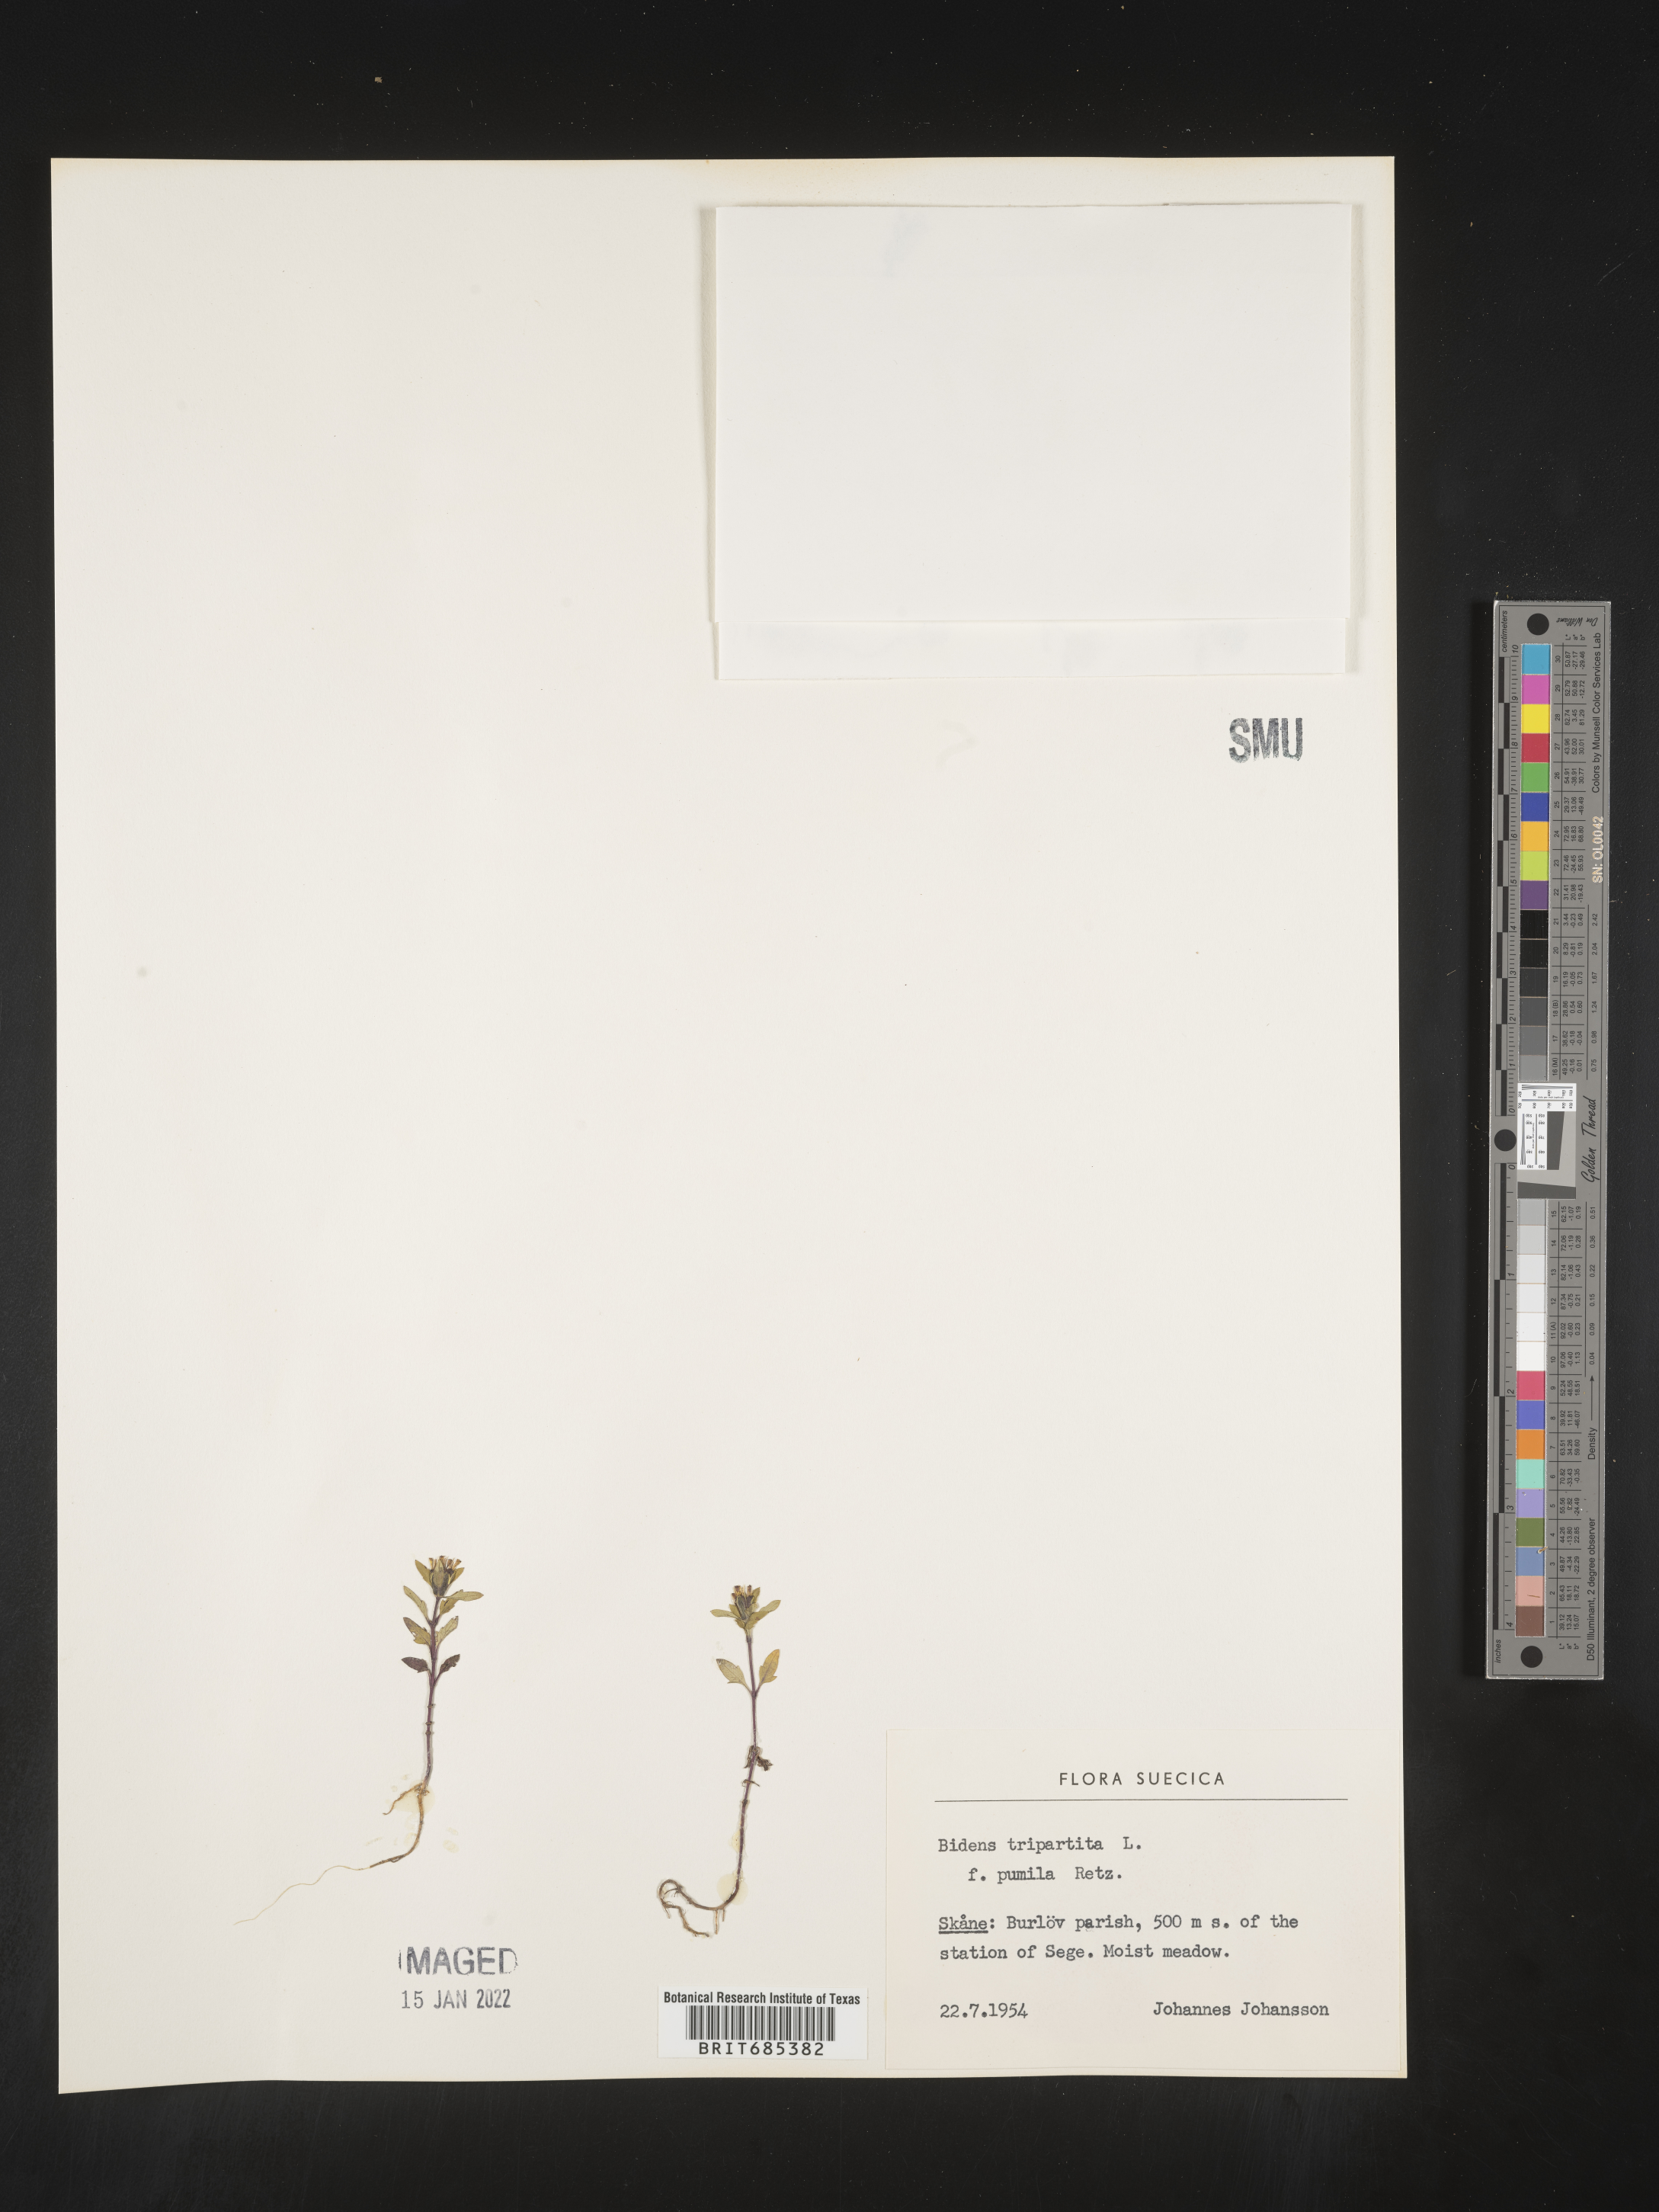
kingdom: Plantae
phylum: Tracheophyta
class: Magnoliopsida
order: Asterales
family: Asteraceae
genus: Bidens
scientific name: Bidens
